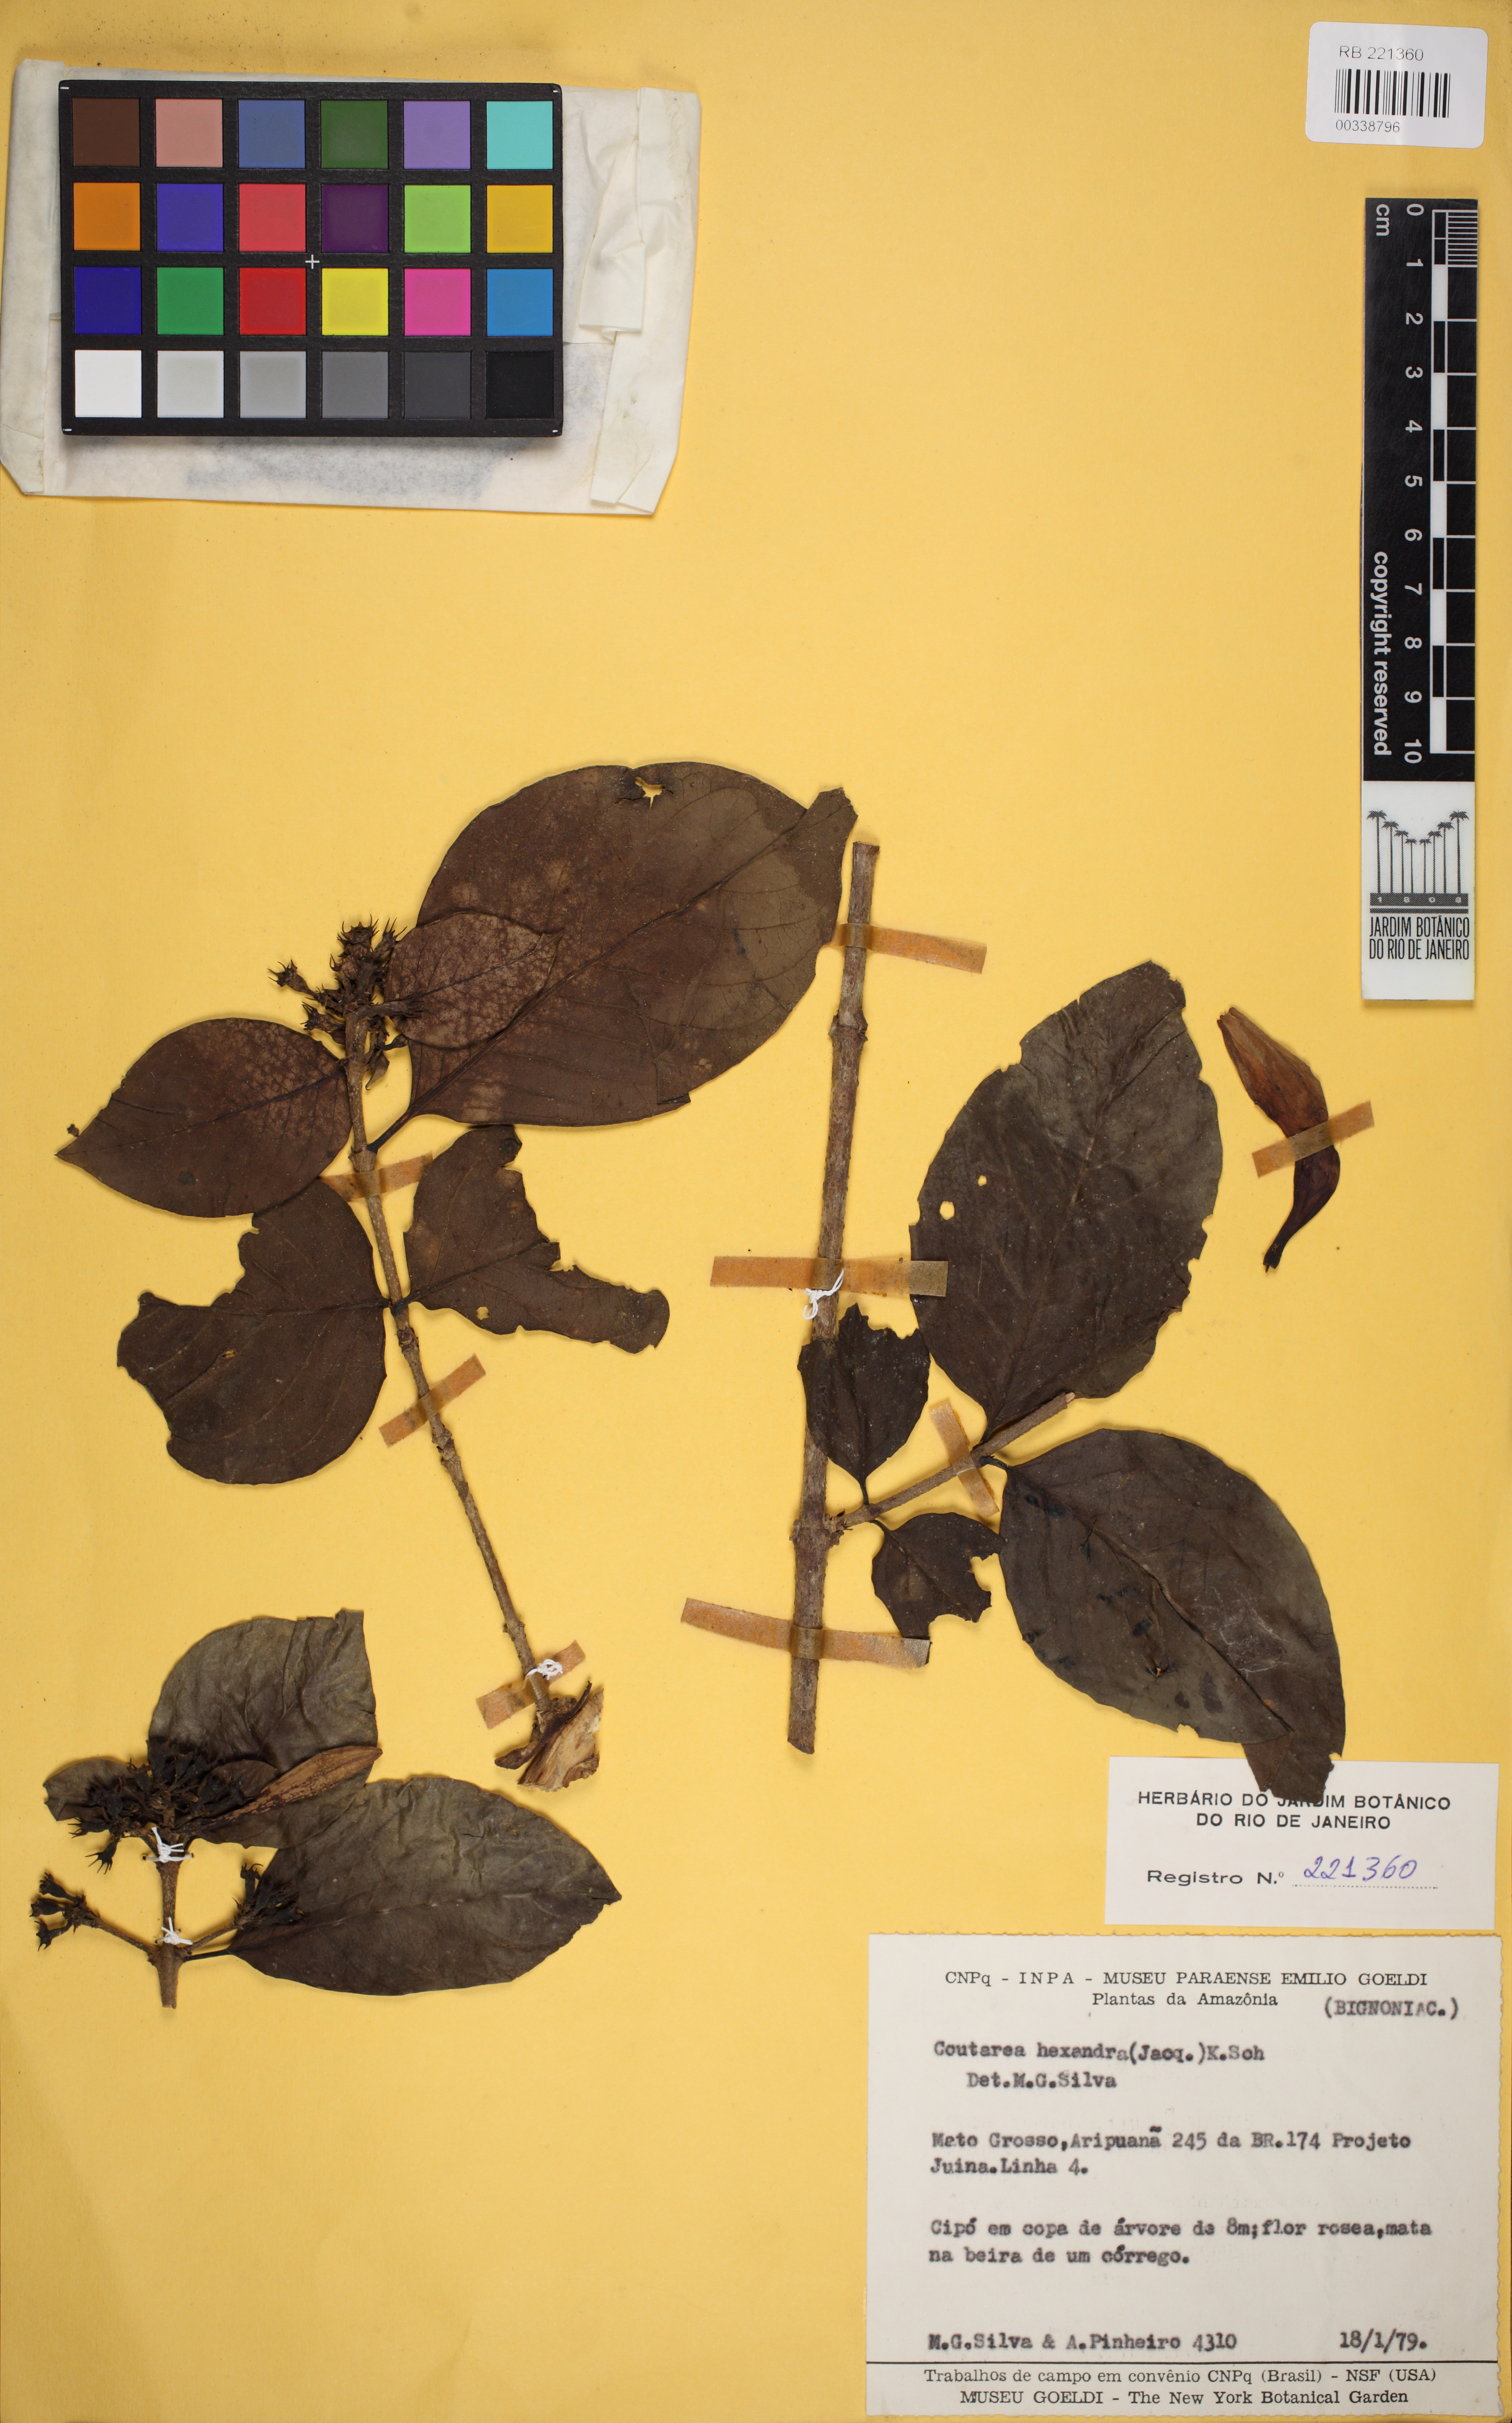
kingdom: Plantae
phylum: Tracheophyta
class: Magnoliopsida
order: Gentianales
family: Rubiaceae
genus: Coutarea
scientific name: Coutarea hexandra
